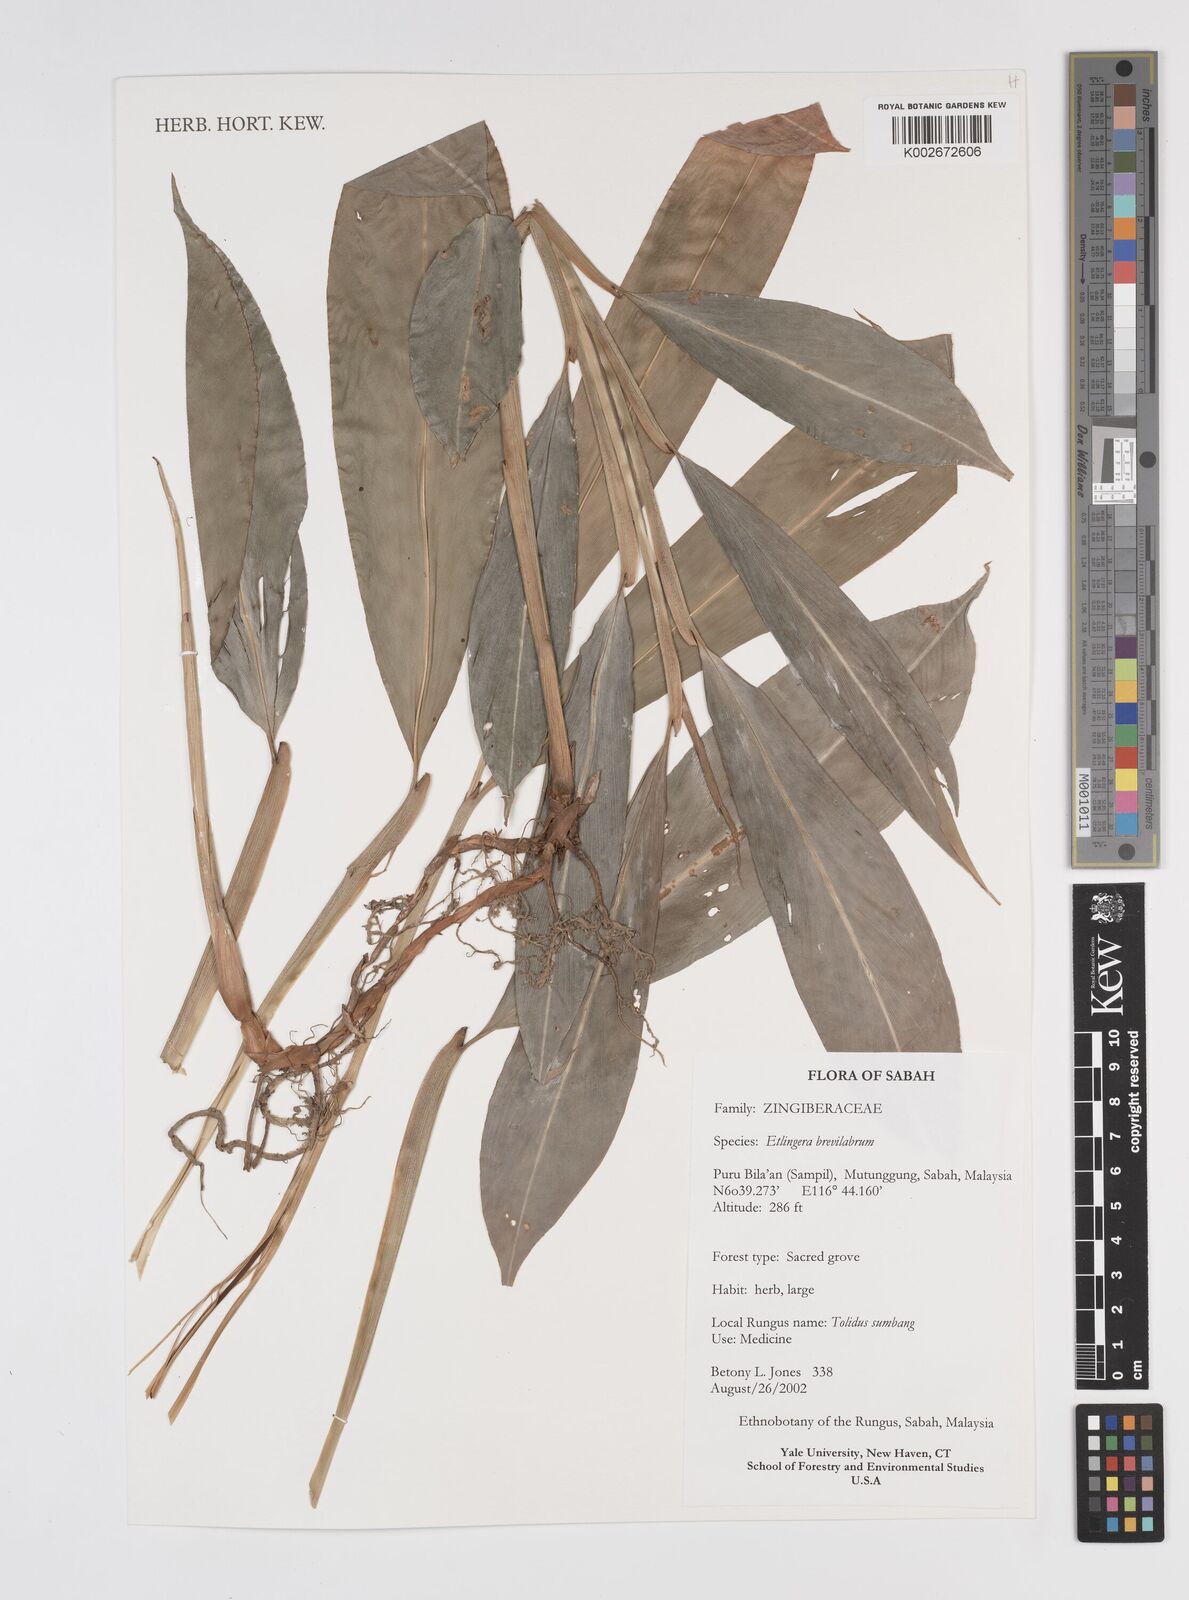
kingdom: Plantae
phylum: Tracheophyta
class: Liliopsida
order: Zingiberales
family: Zingiberaceae
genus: Etlingera
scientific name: Etlingera
